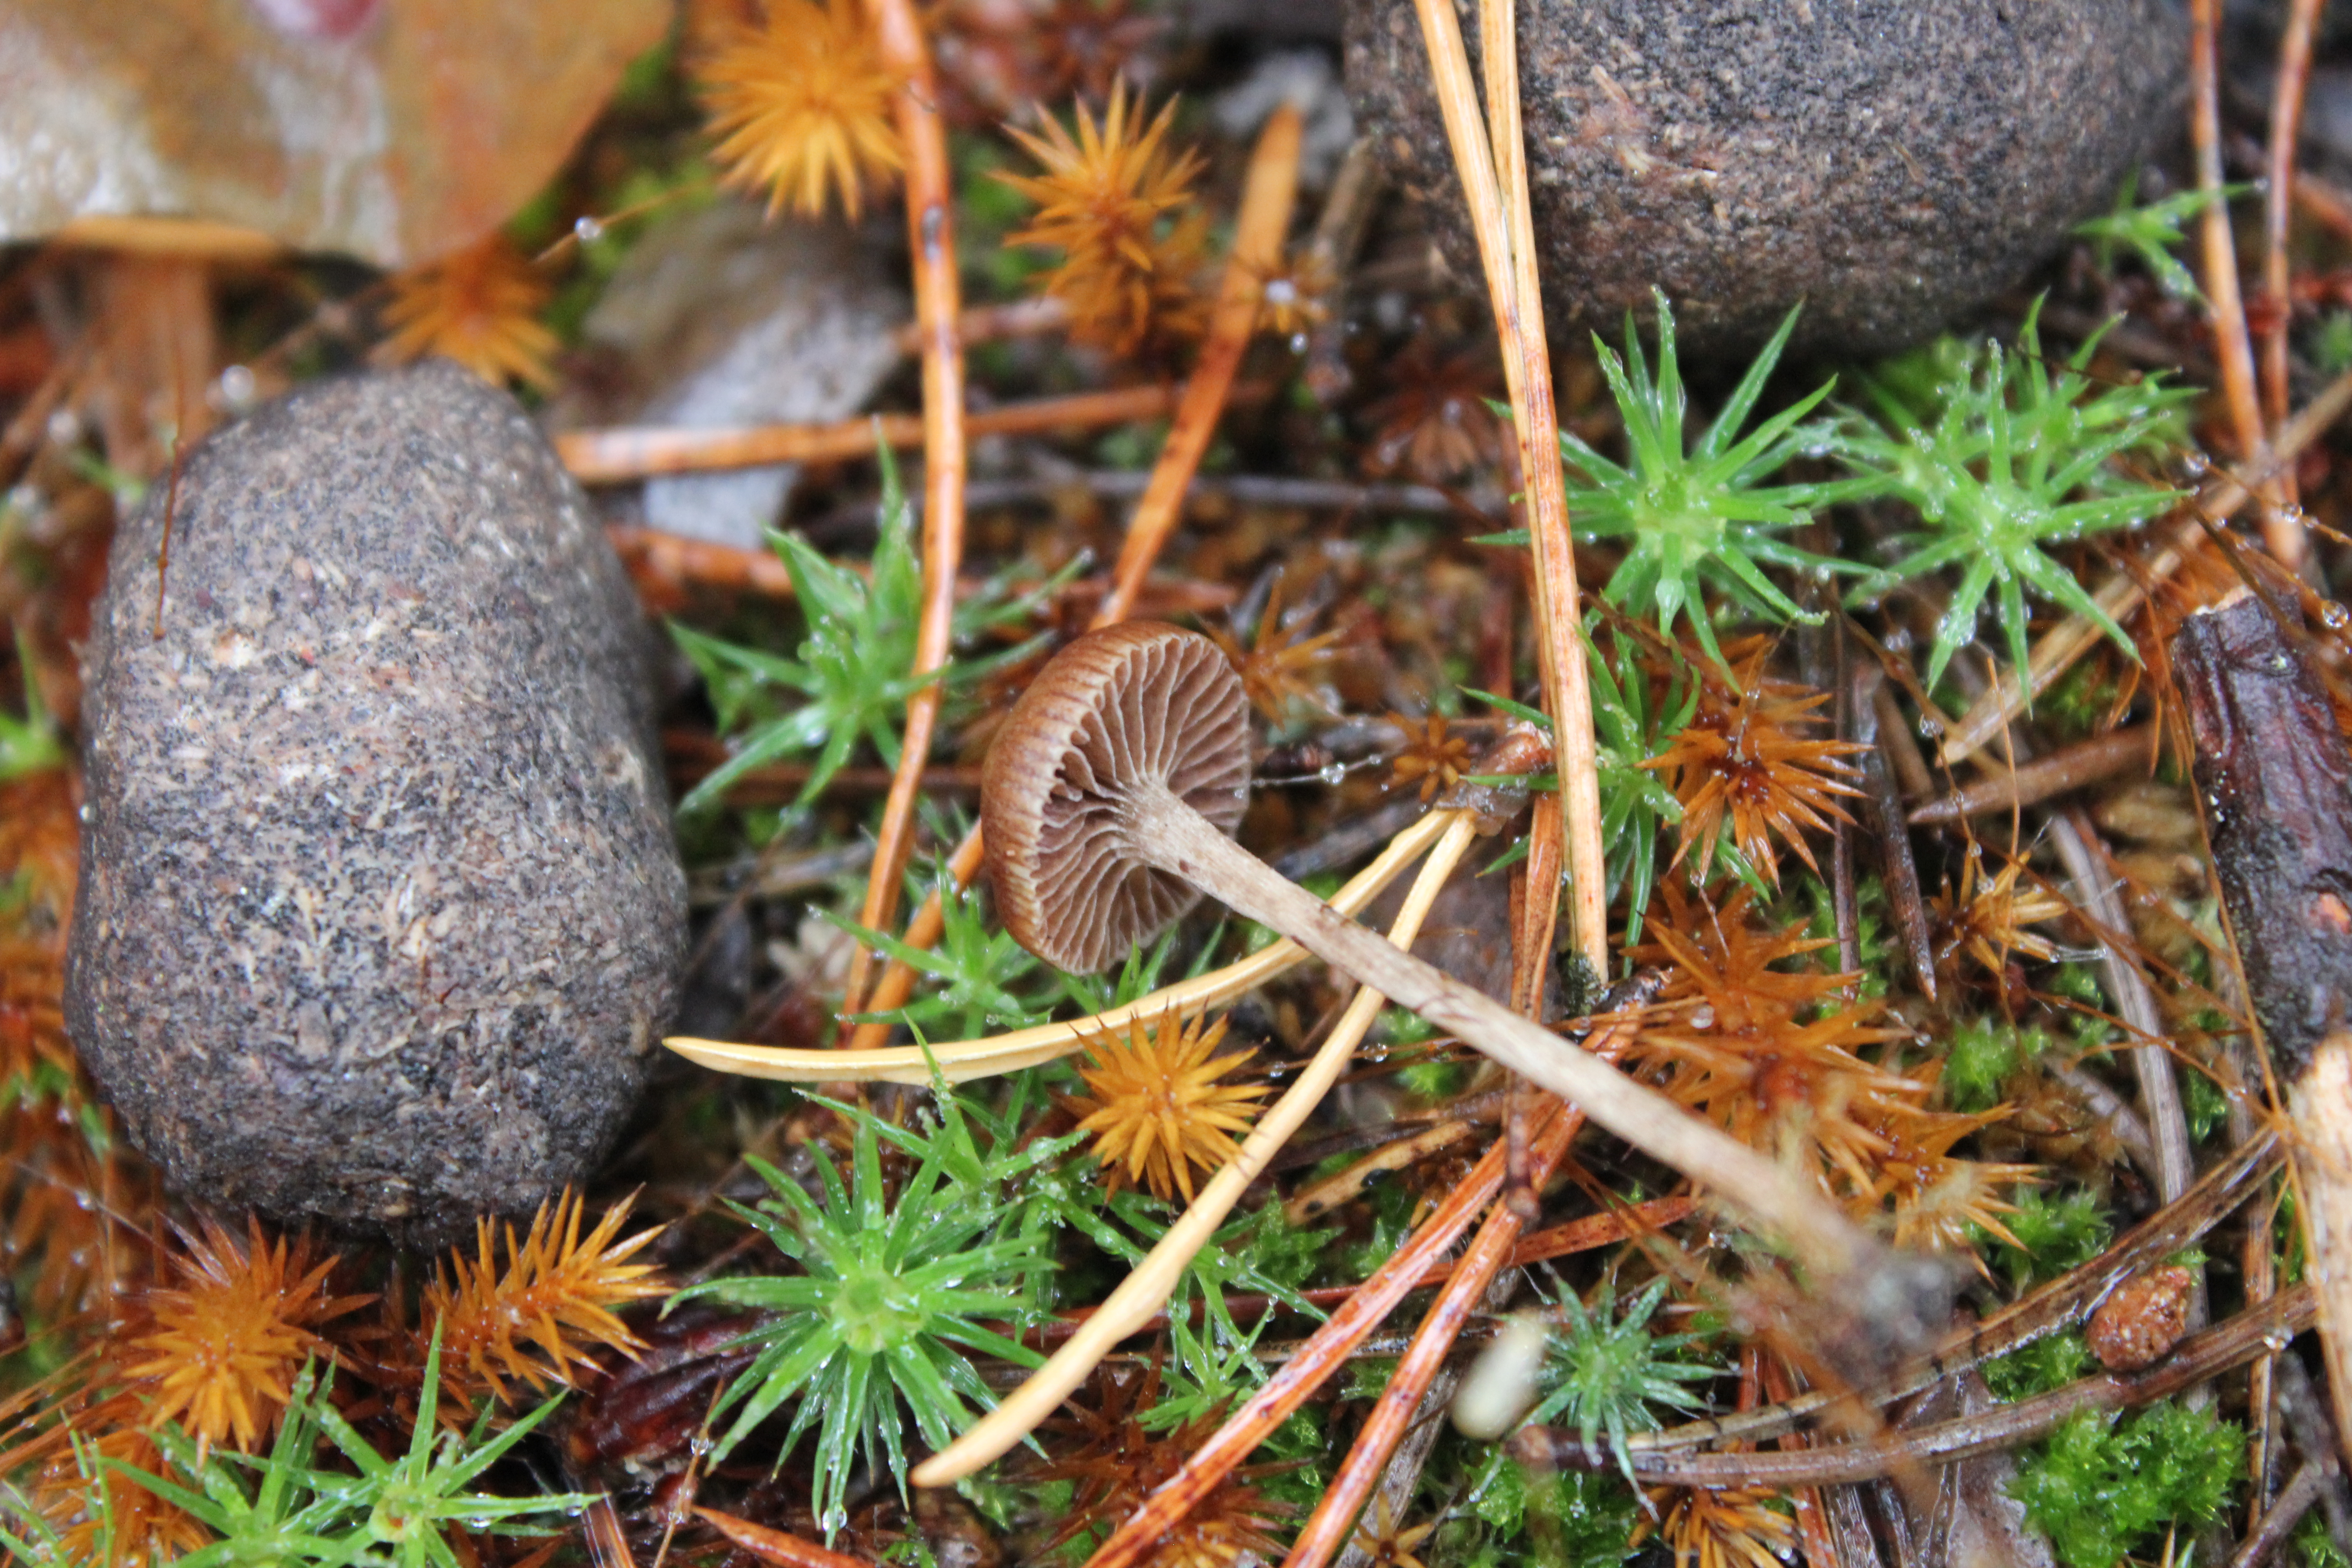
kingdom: Fungi
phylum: Basidiomycota
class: Agaricomycetes
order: Agaricales
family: Strophariaceae
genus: Deconica
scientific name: Deconica montana
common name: Mountain moss deconica
